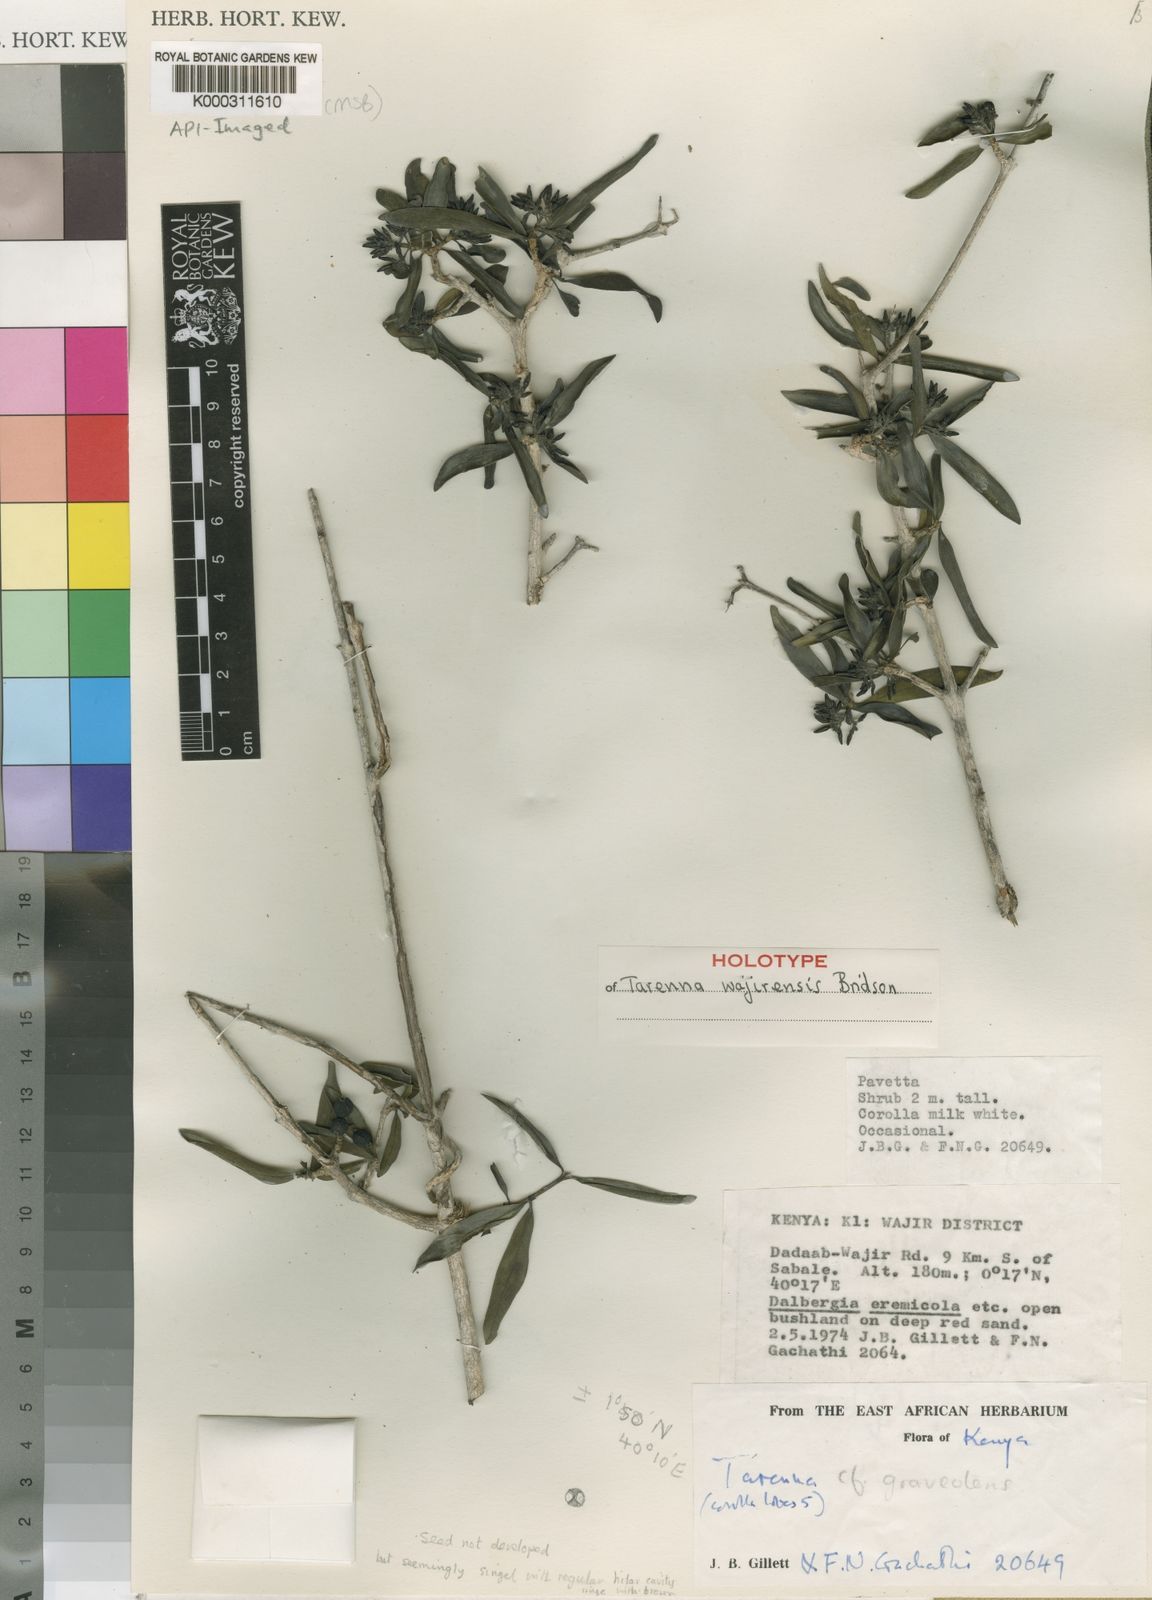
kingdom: Plantae
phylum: Tracheophyta
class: Magnoliopsida
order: Gentianales
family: Rubiaceae
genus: Coptosperma
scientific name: Coptosperma wajirense
